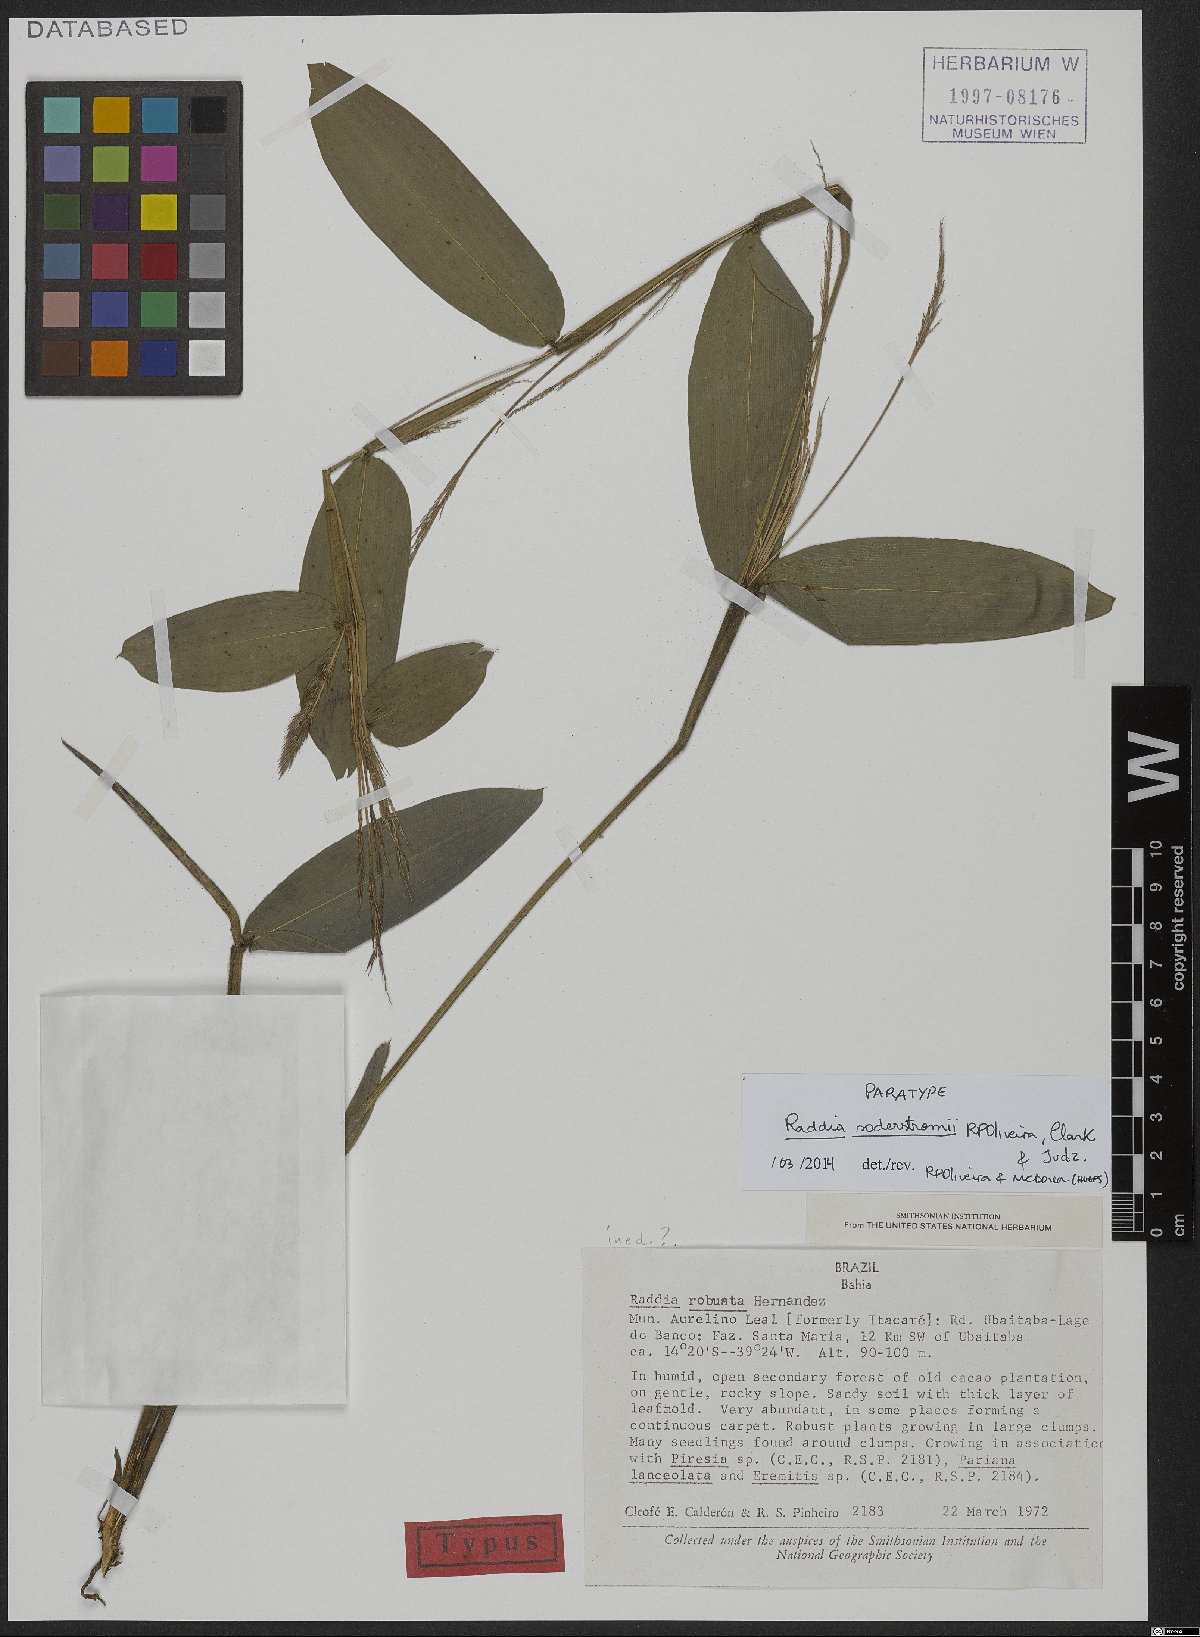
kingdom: Plantae
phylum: Tracheophyta
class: Liliopsida
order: Poales
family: Poaceae
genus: Raddia
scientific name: Raddia soderstromii
